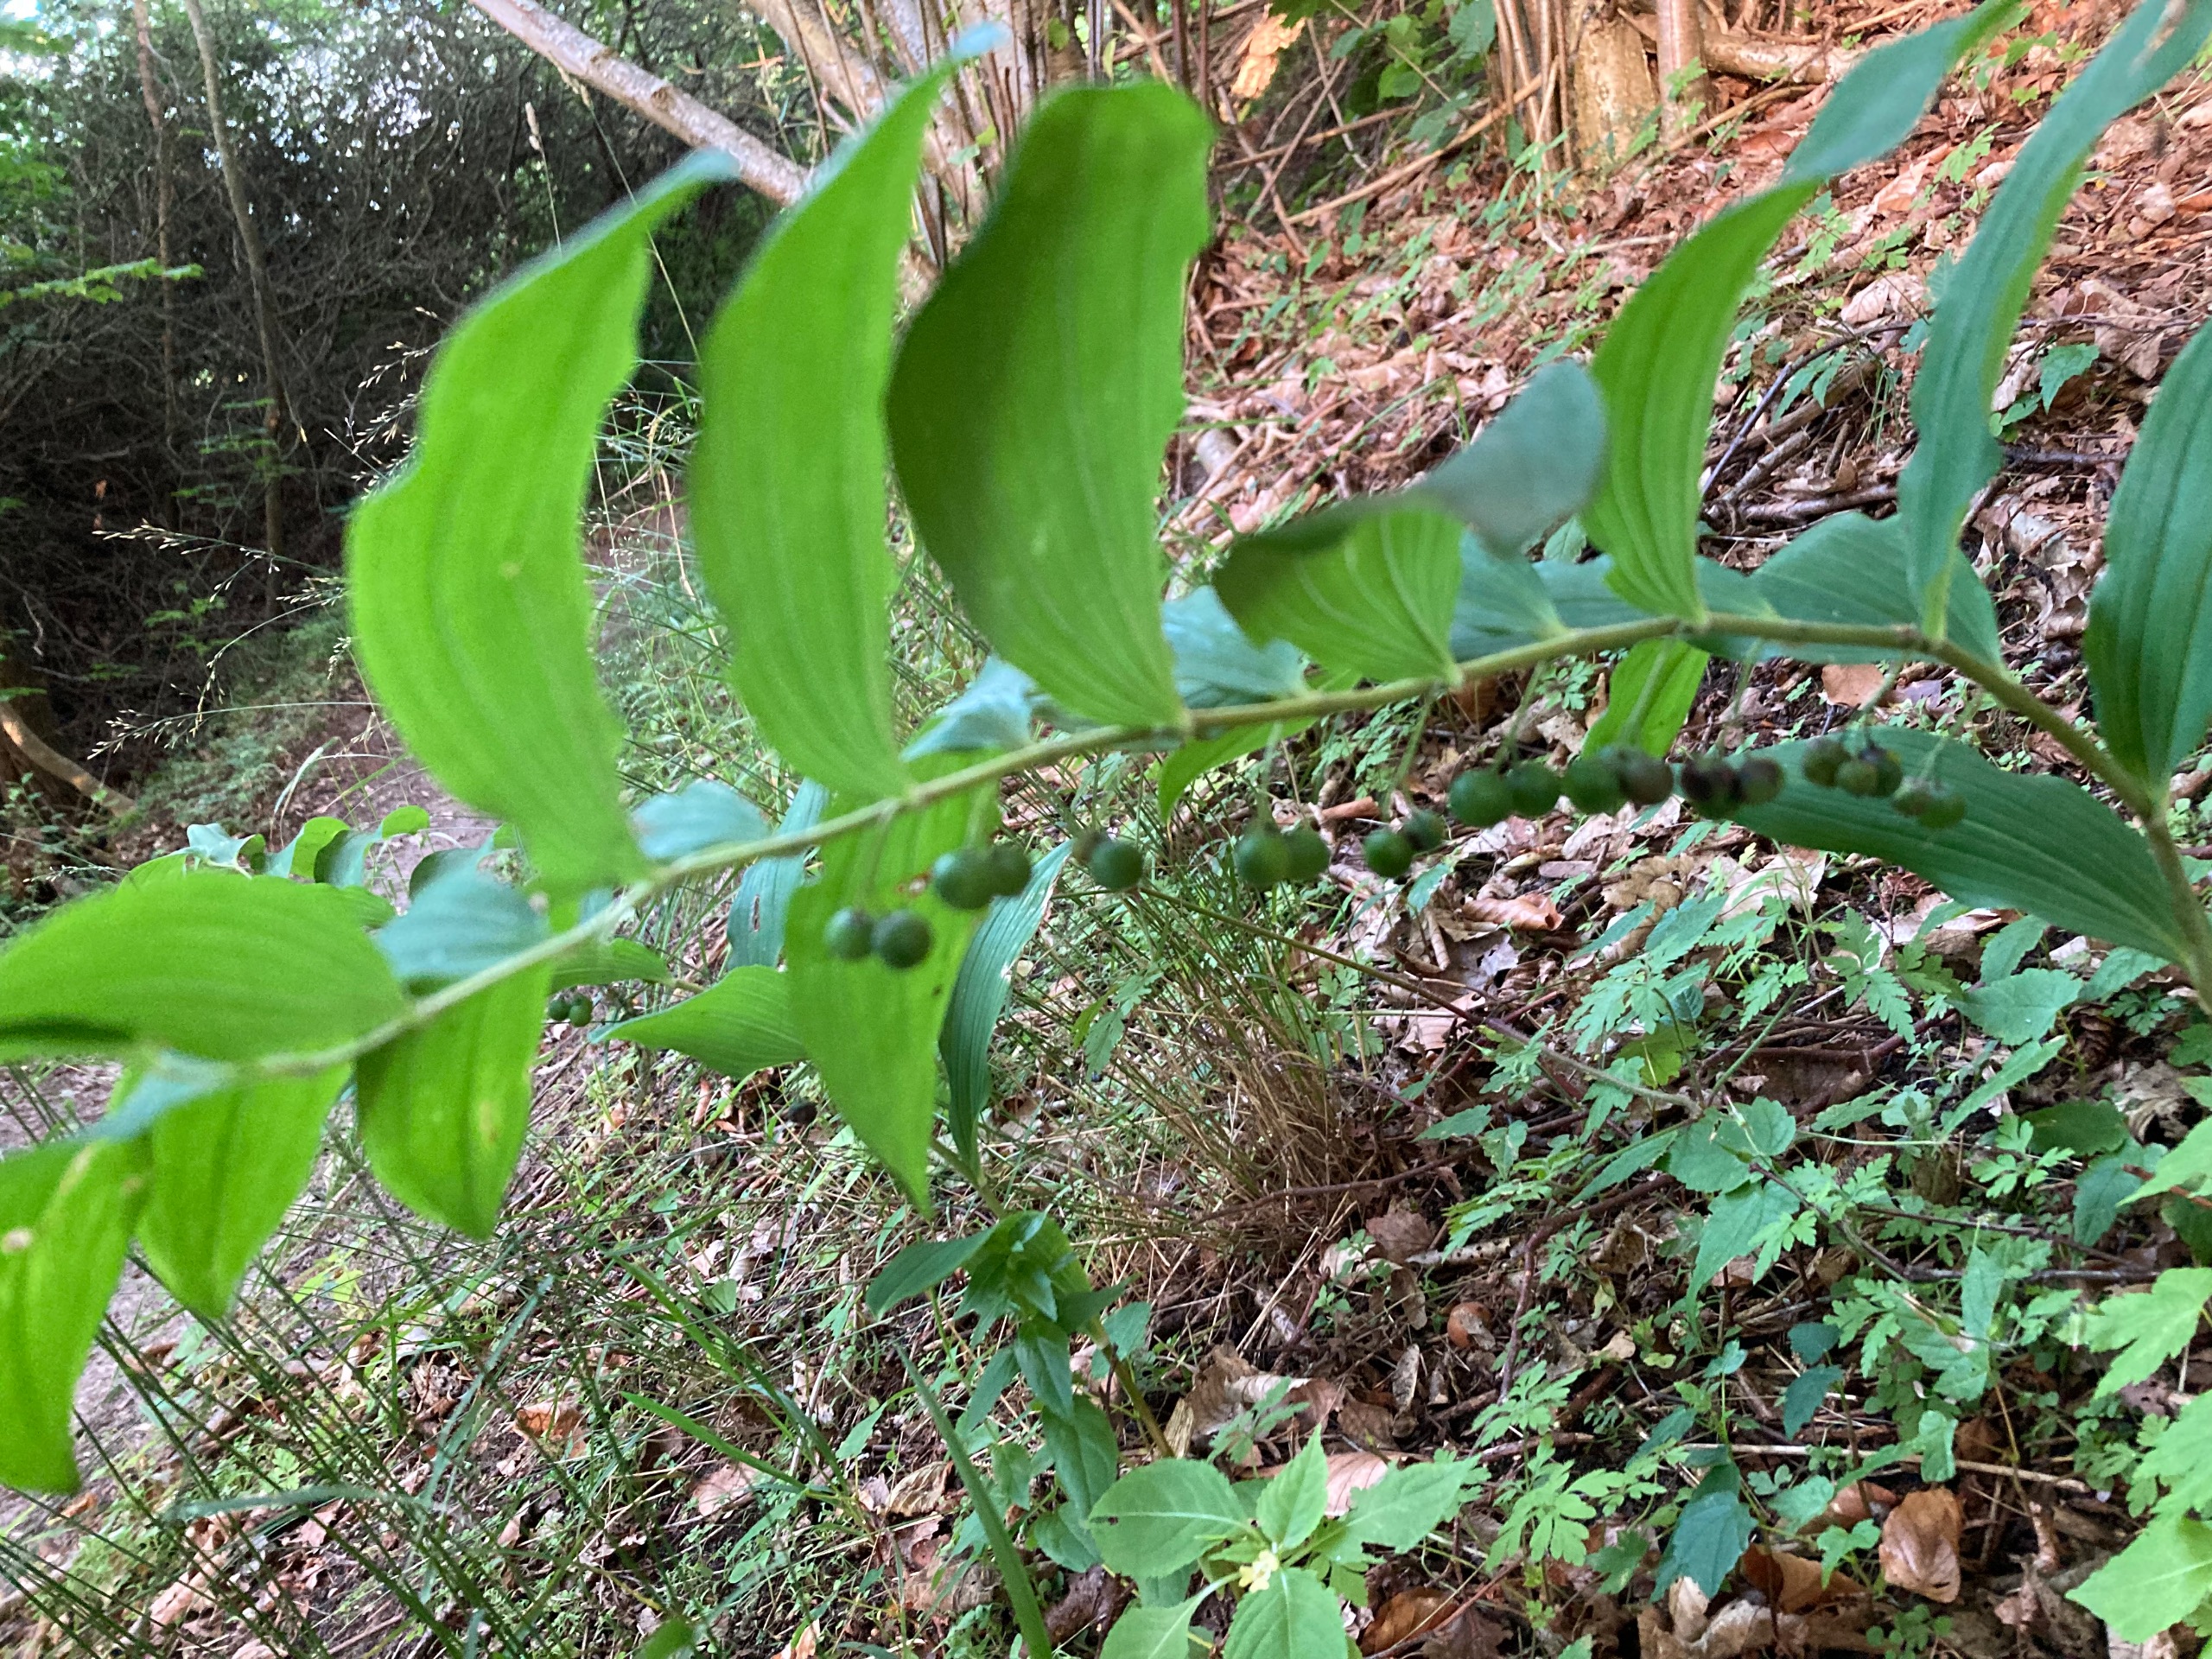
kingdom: Plantae
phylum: Tracheophyta
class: Liliopsida
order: Asparagales
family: Asparagaceae
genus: Polygonatum
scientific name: Polygonatum multiflorum
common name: Stor konval
